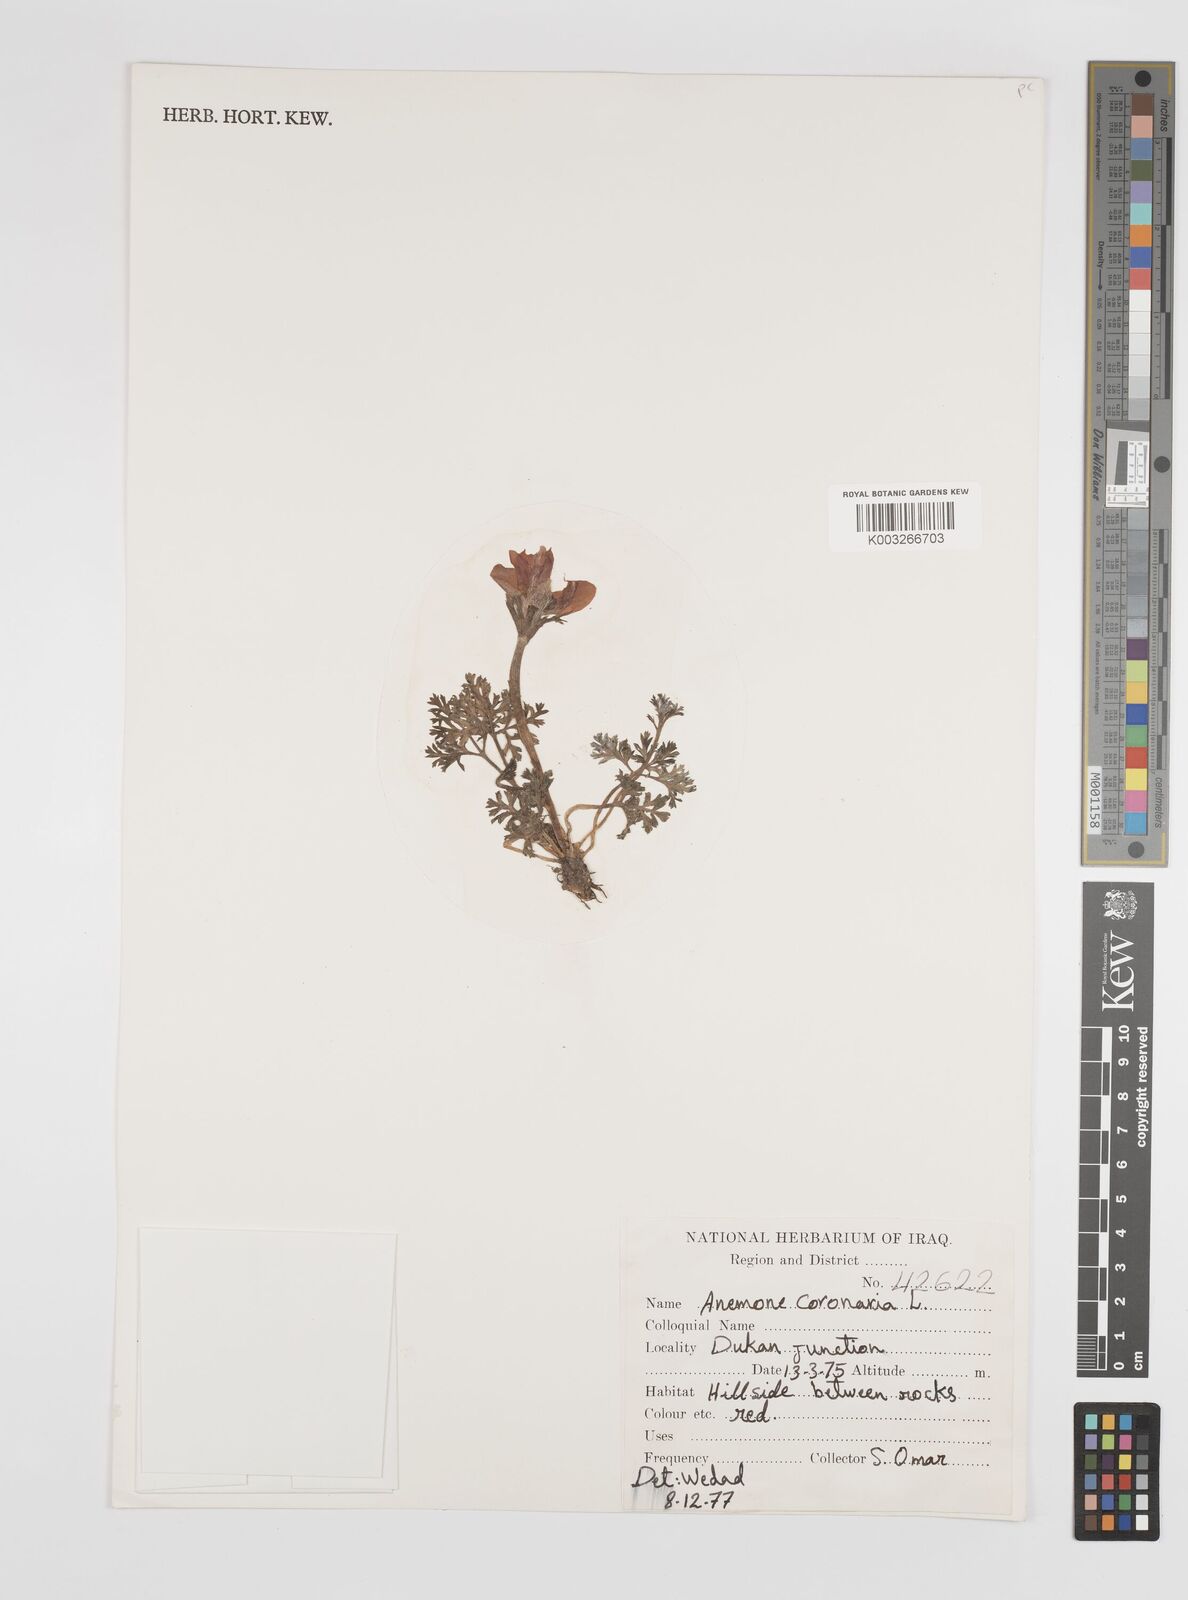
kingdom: Plantae
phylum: Tracheophyta
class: Magnoliopsida
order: Ranunculales
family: Ranunculaceae
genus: Anemone
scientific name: Anemone coronaria
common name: Poppy anemone
